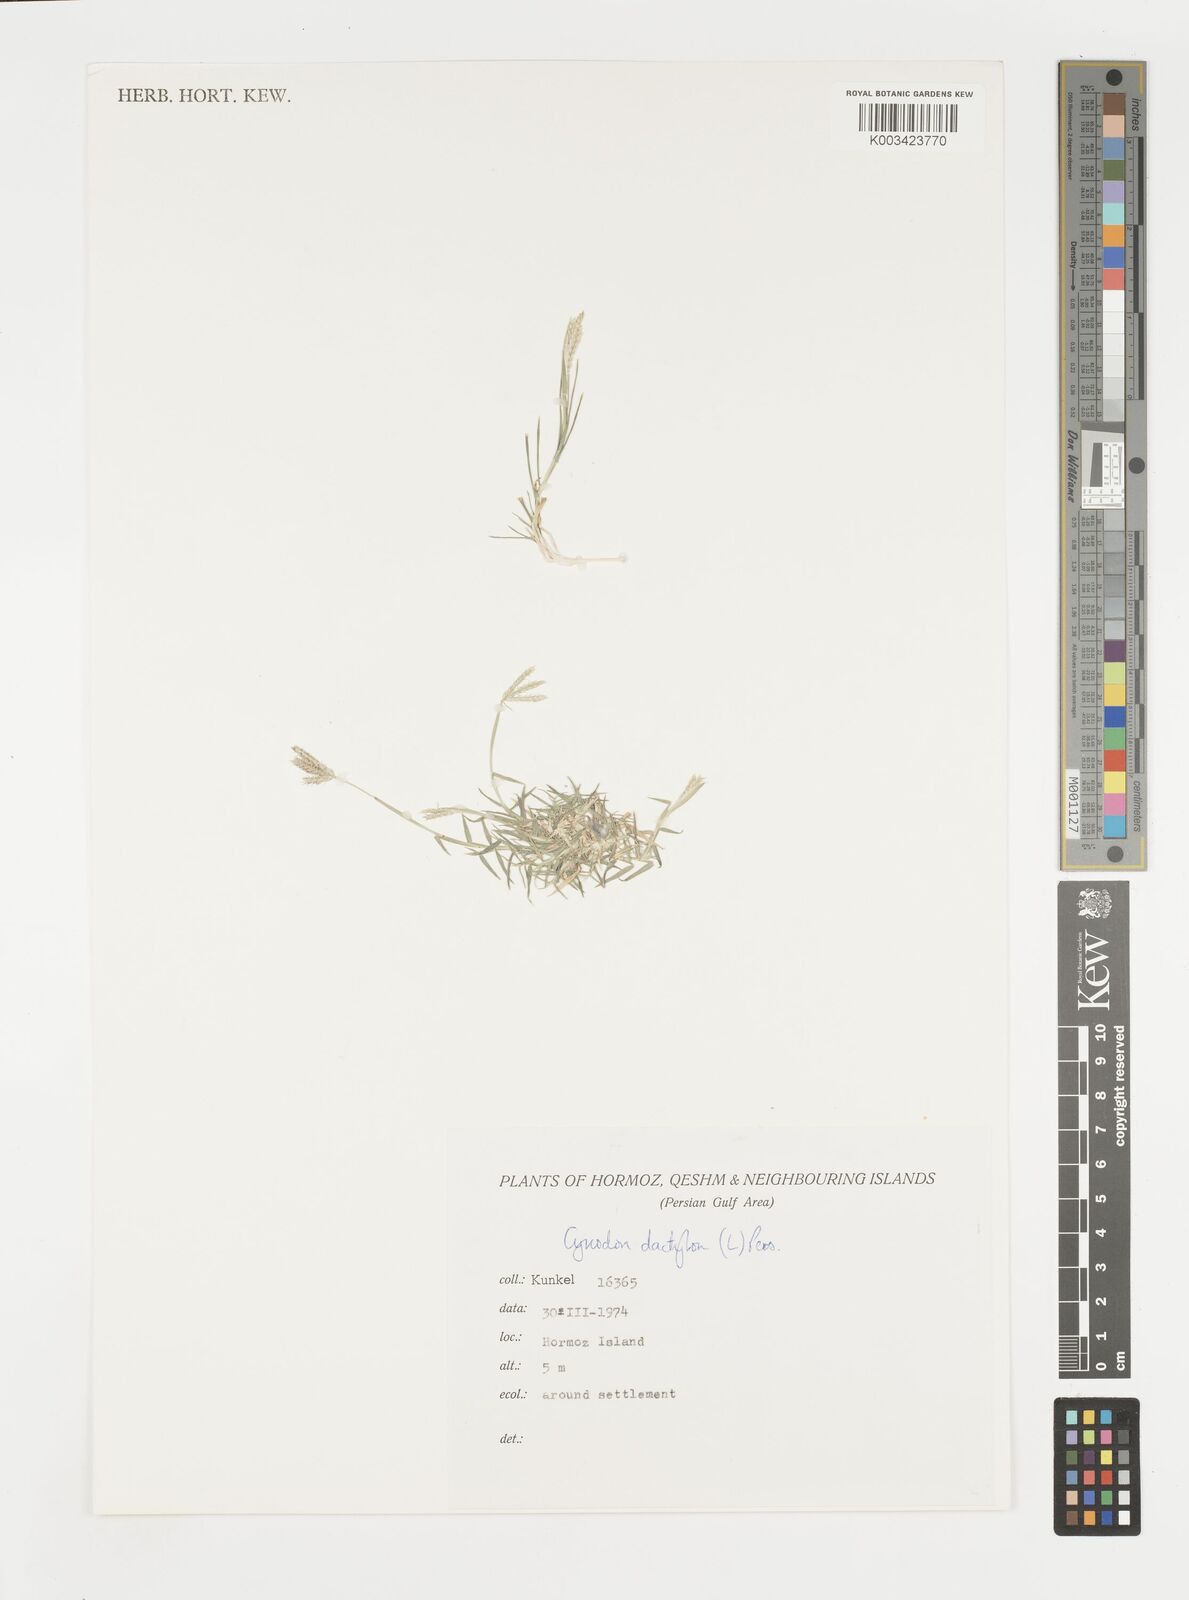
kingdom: Plantae
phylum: Tracheophyta
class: Liliopsida
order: Poales
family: Poaceae
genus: Cynodon
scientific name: Cynodon dactylon
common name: Bermuda grass
